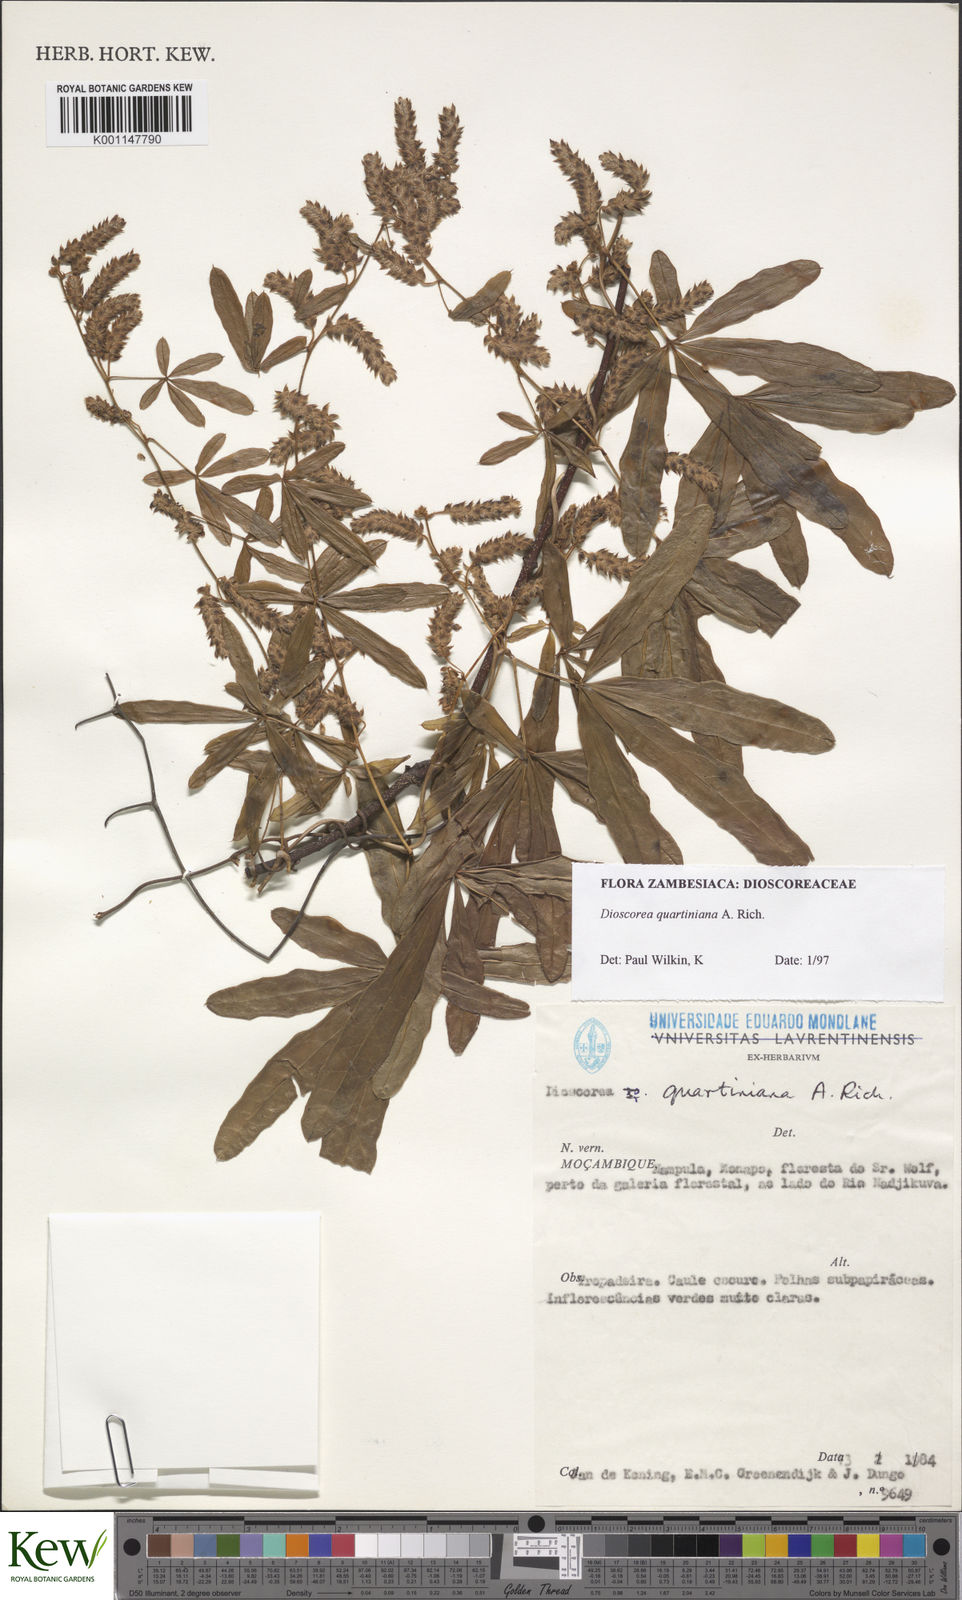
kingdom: Plantae
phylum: Tracheophyta
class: Liliopsida
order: Dioscoreales
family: Dioscoreaceae
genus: Dioscorea
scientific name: Dioscorea quartiniana
